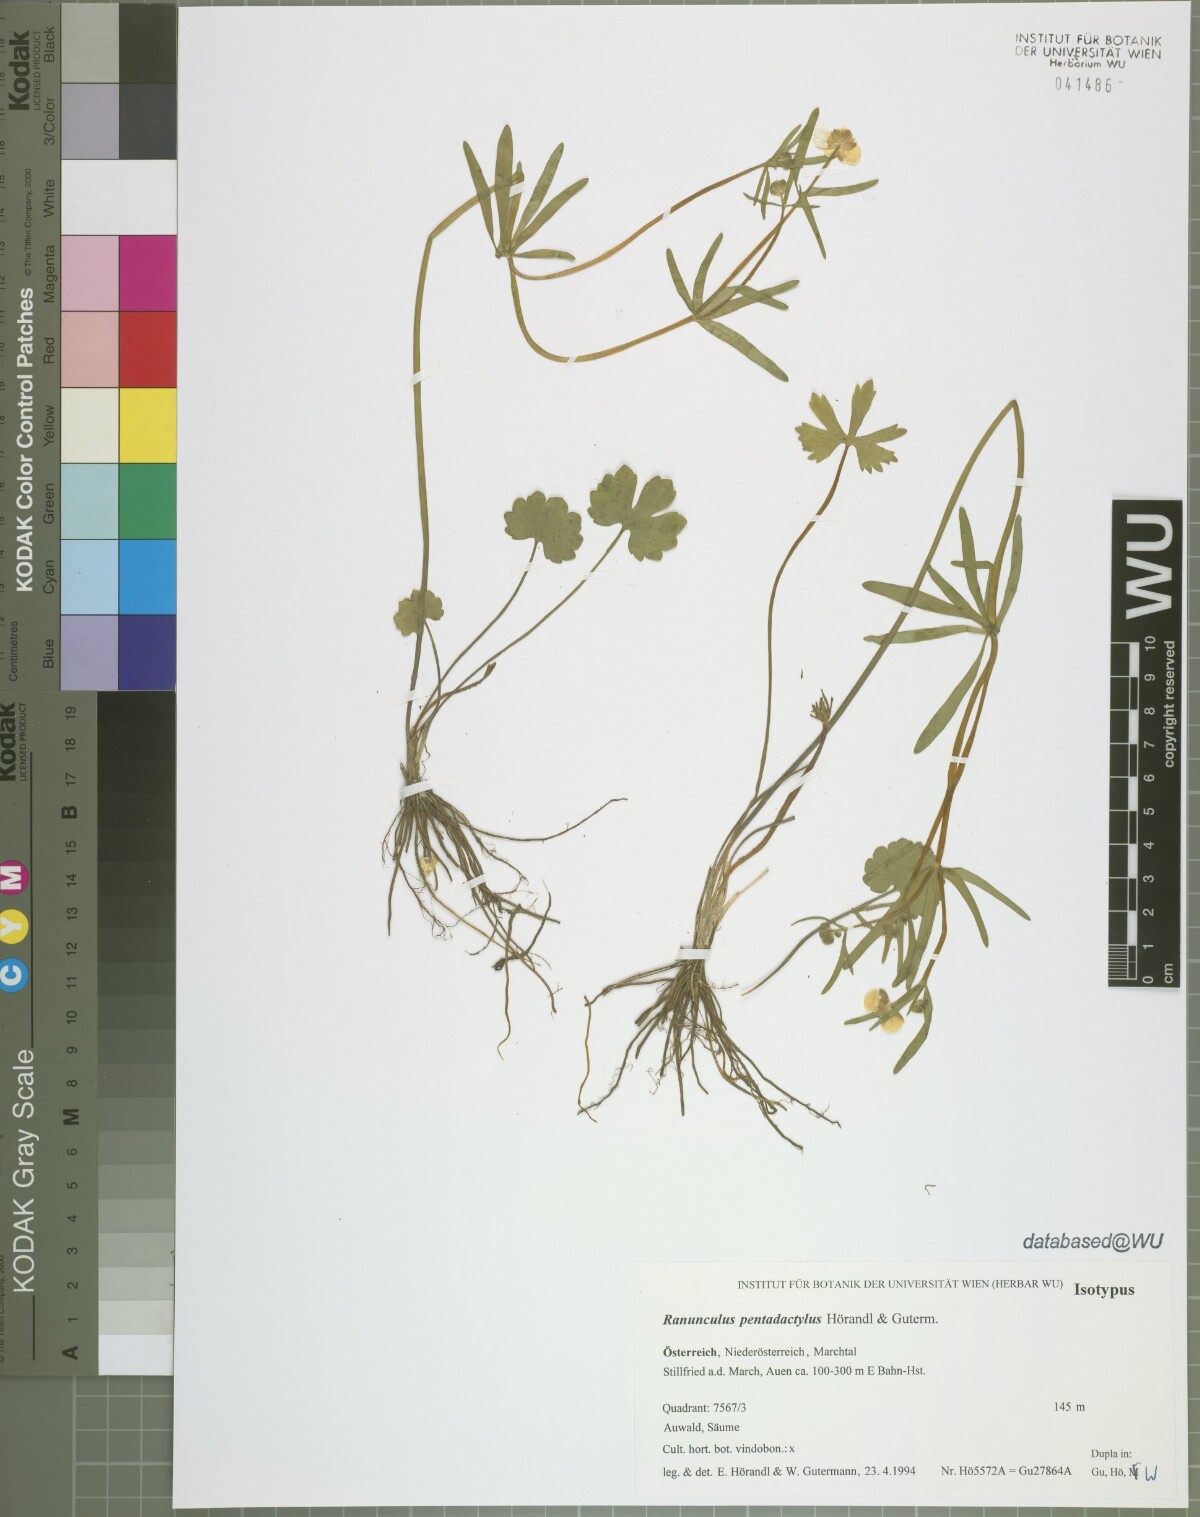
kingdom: Plantae
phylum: Tracheophyta
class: Magnoliopsida
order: Ranunculales
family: Ranunculaceae
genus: Ranunculus
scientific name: Ranunculus pentadactylus
